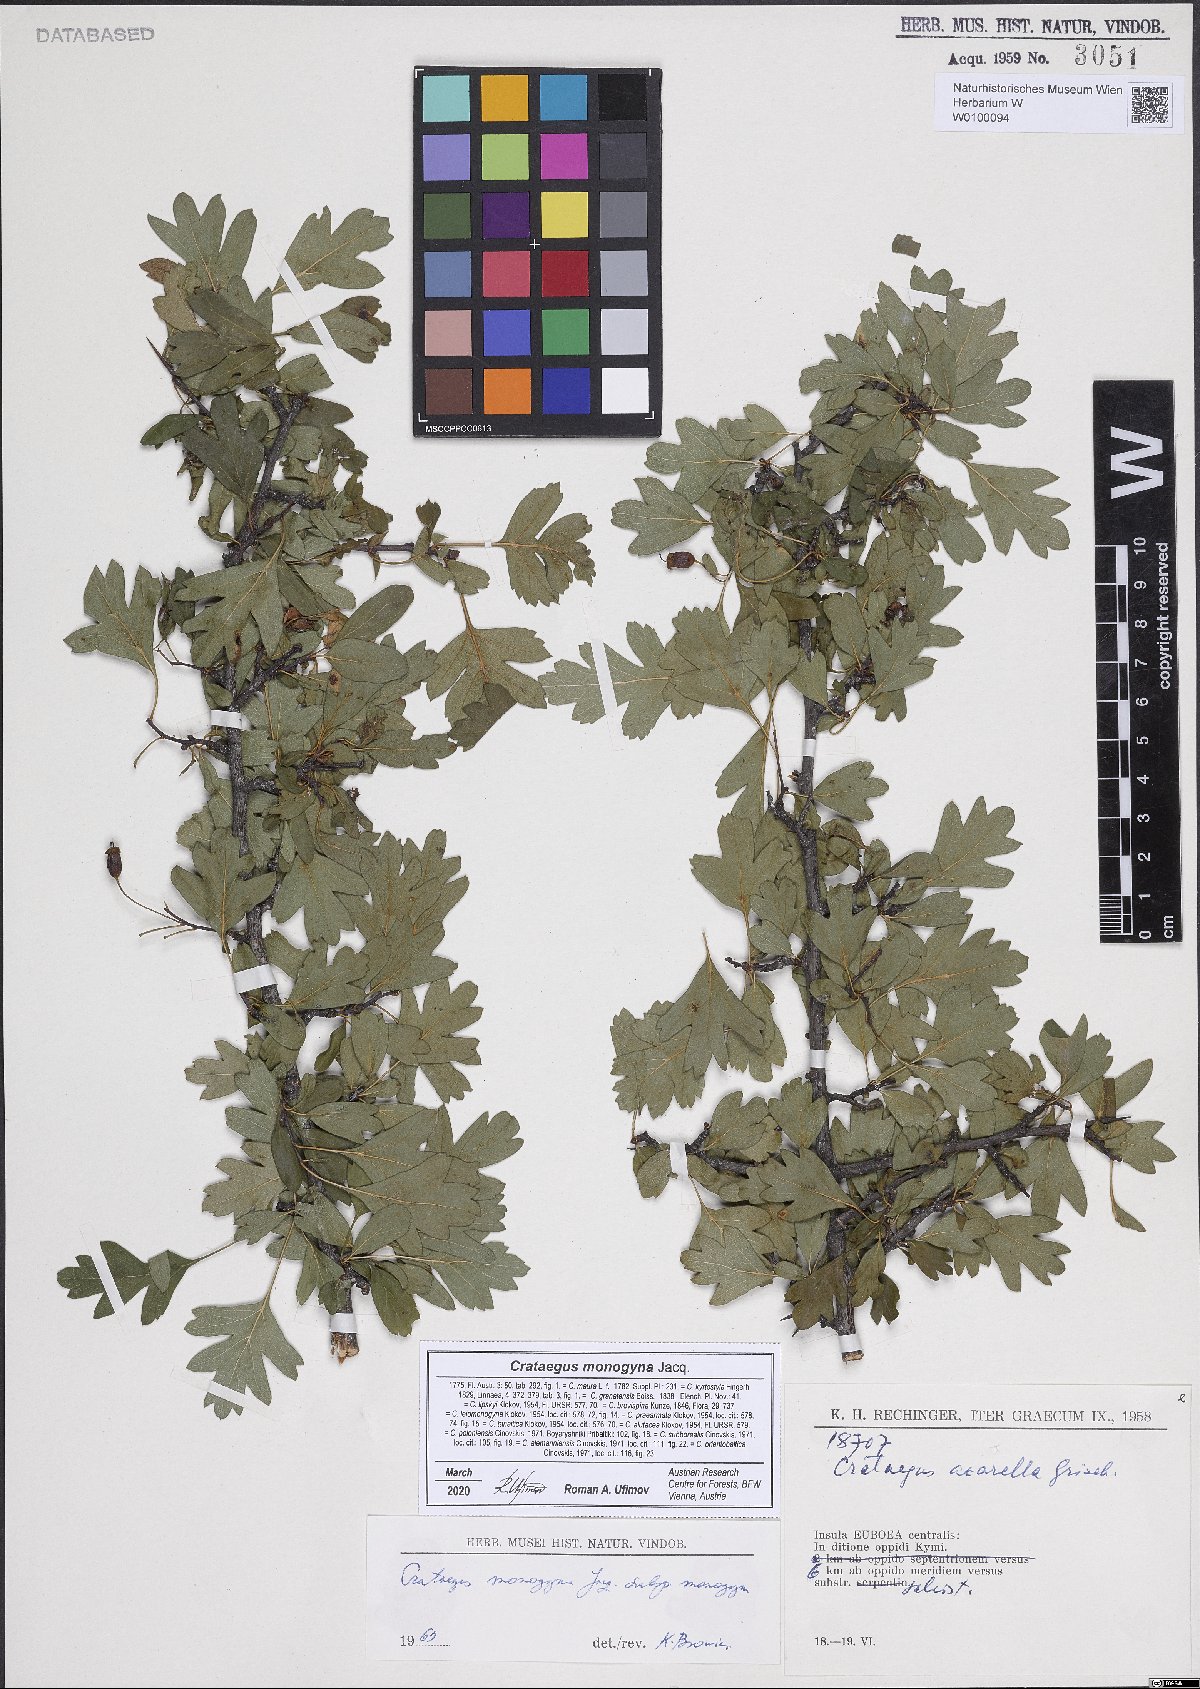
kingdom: Plantae
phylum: Tracheophyta
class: Magnoliopsida
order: Rosales
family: Rosaceae
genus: Crataegus
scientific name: Crataegus monogyna
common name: Hawthorn
